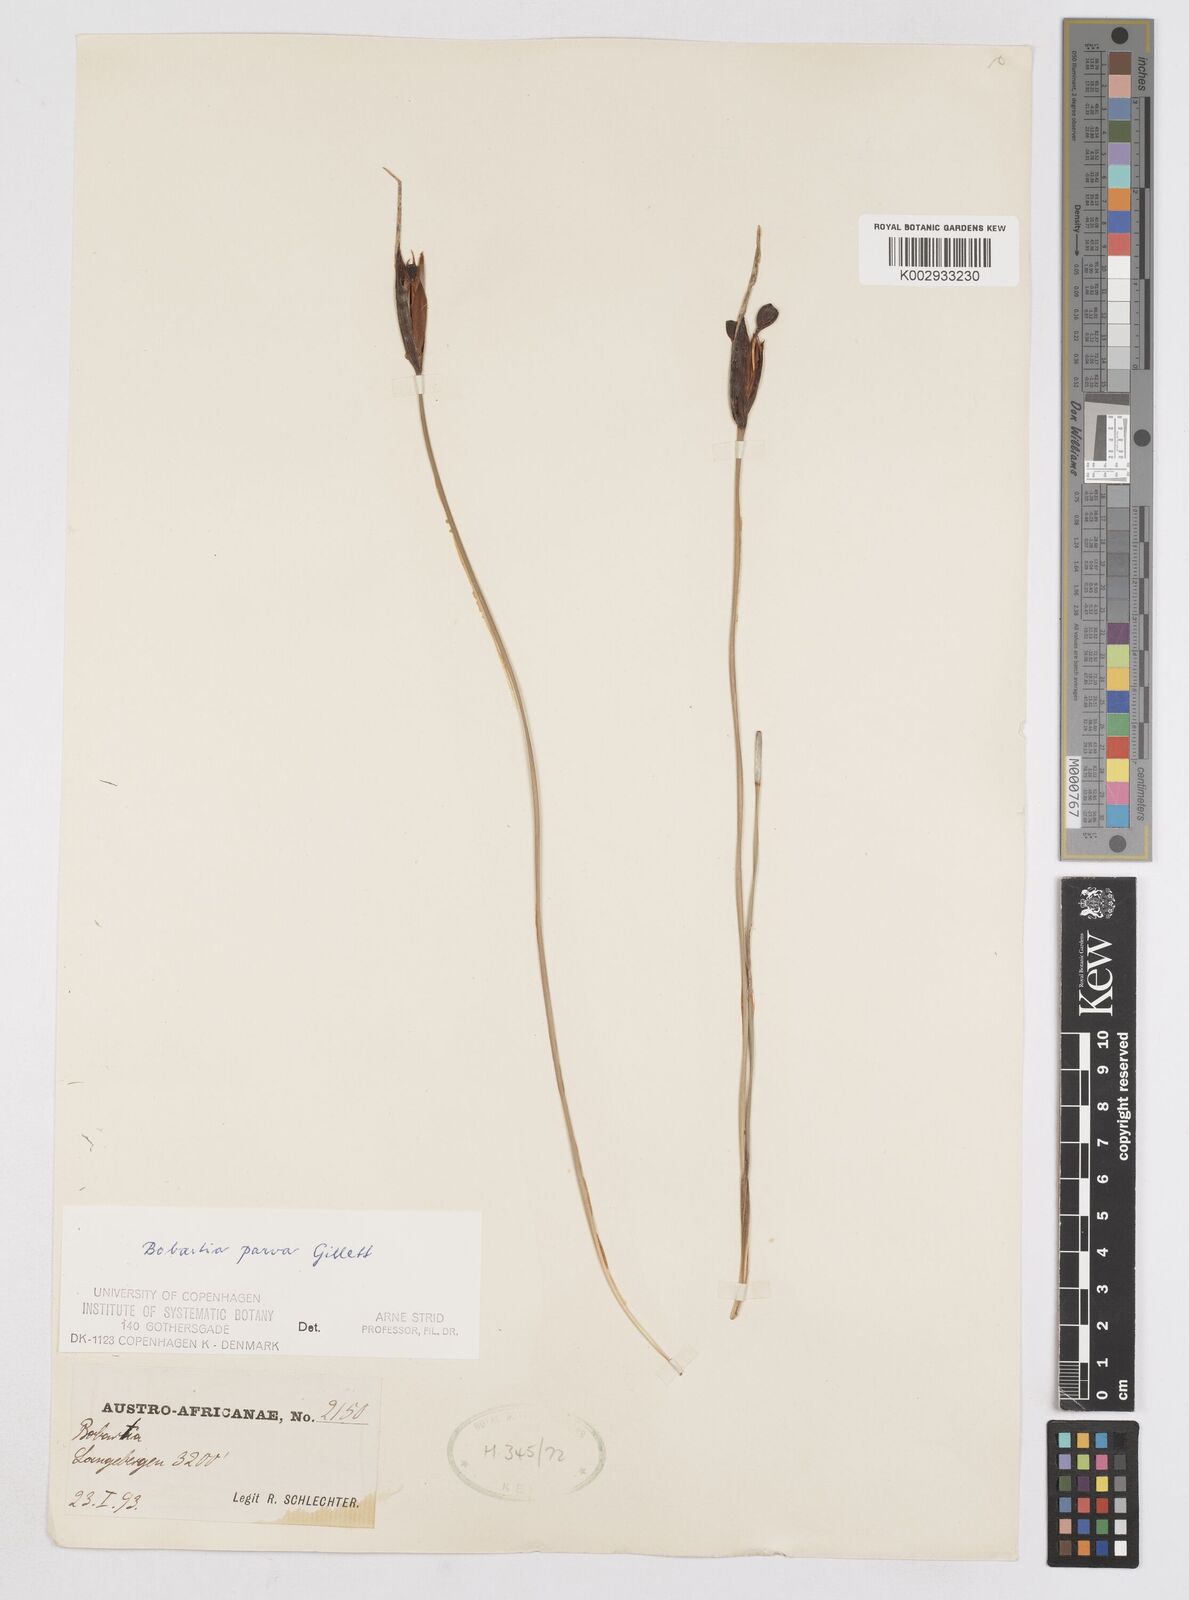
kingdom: Plantae
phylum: Tracheophyta
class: Liliopsida
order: Asparagales
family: Iridaceae
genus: Bobartia
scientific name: Bobartia parva
